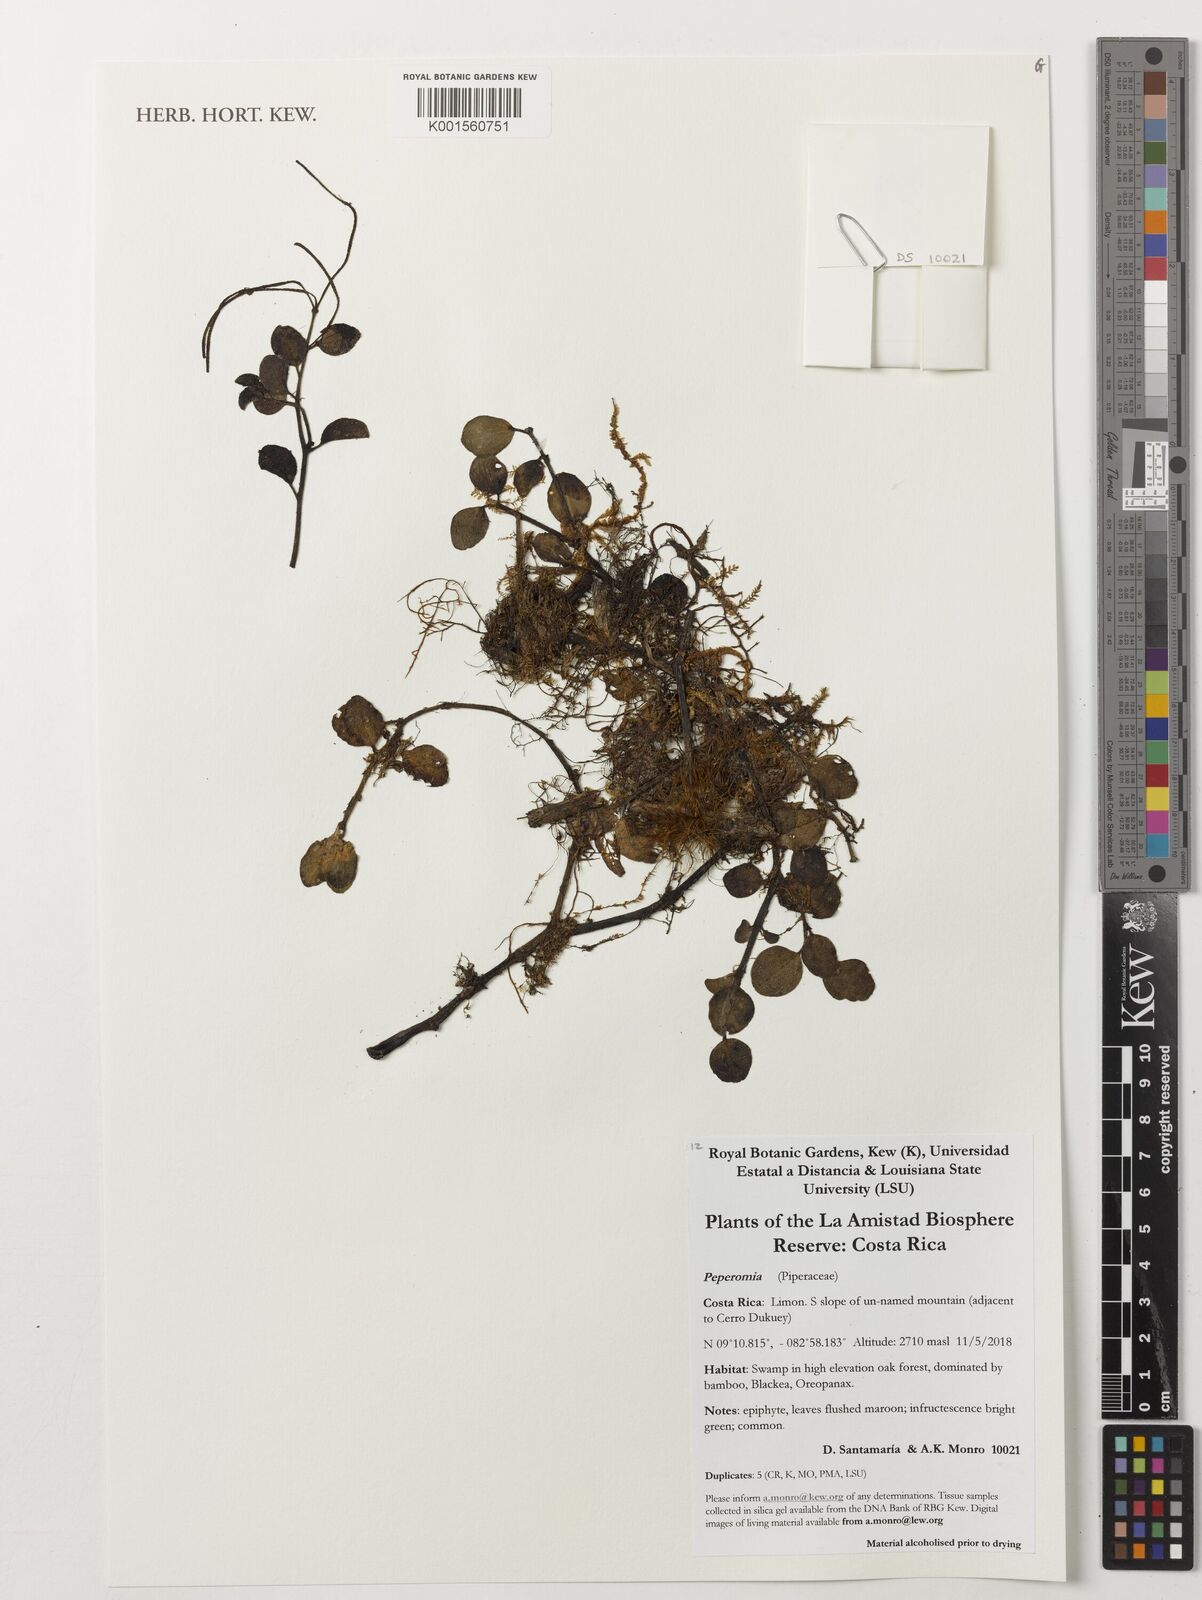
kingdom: Plantae
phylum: Tracheophyta
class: Magnoliopsida
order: Piperales
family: Piperaceae
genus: Peperomia
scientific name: Peperomia
